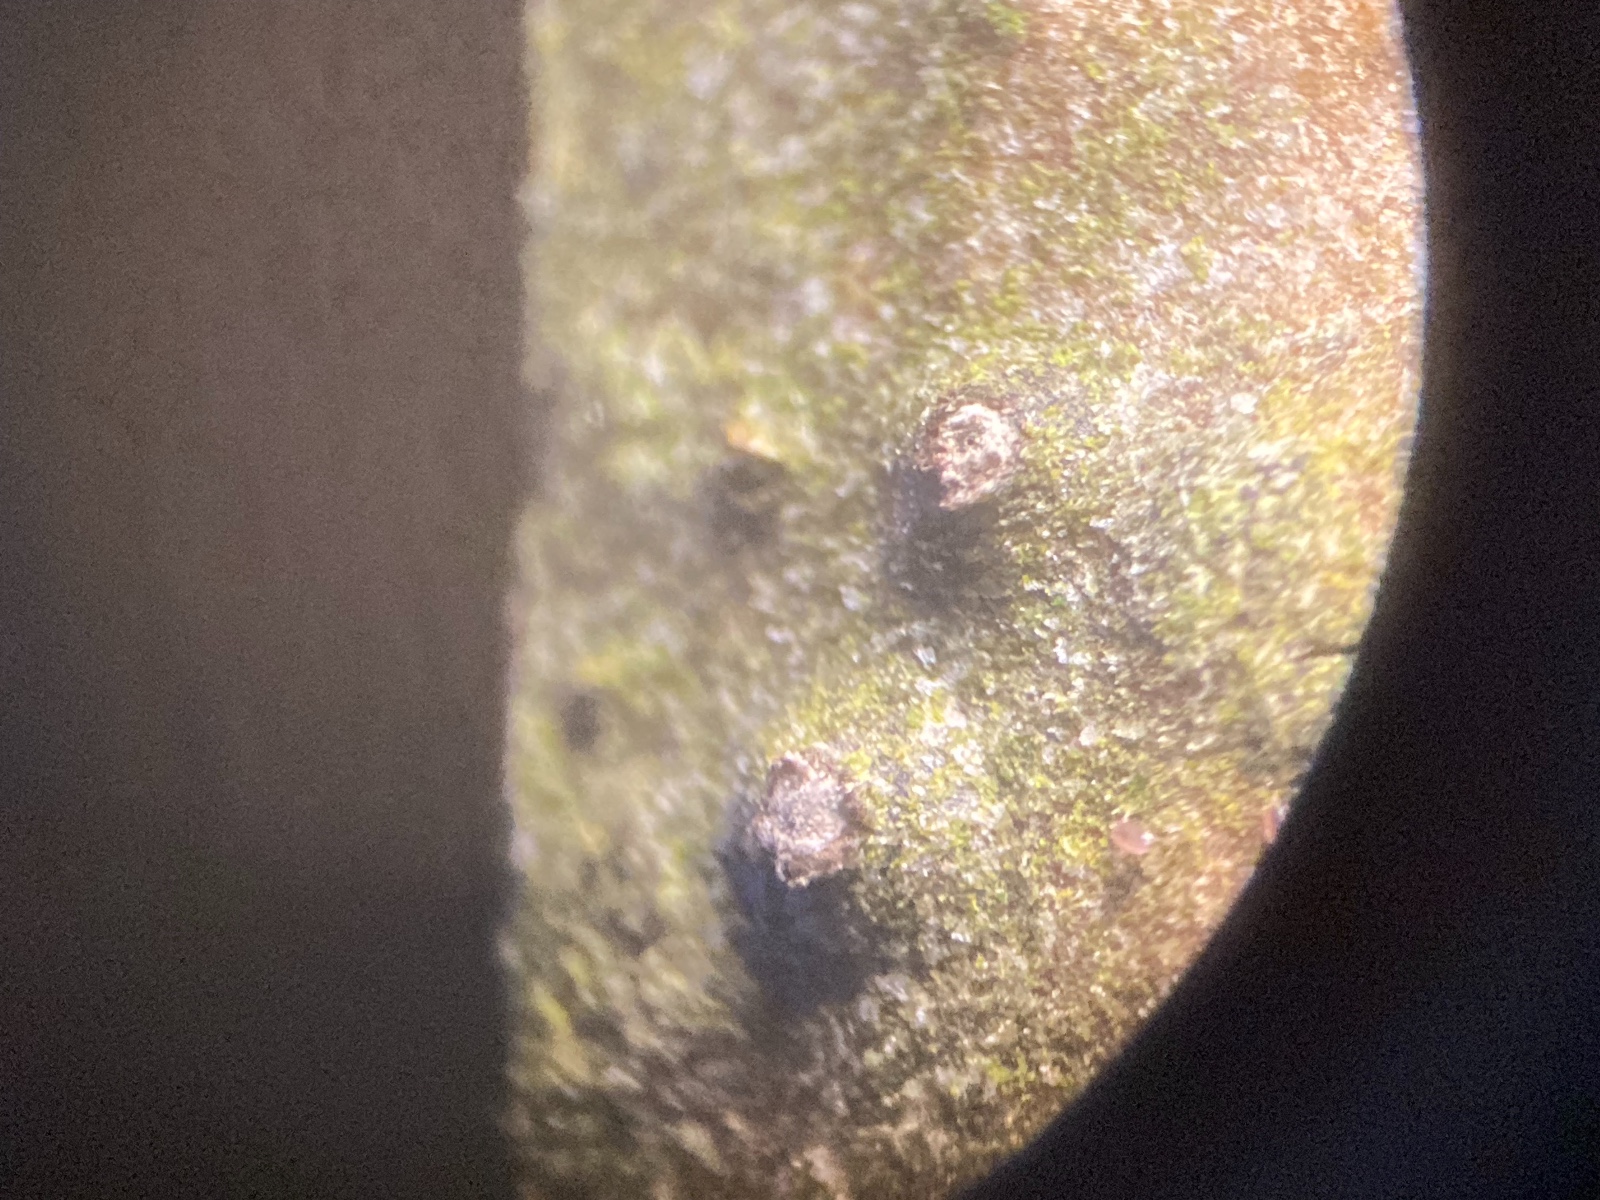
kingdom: Fungi
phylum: Ascomycota
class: Sordariomycetes
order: Diaporthales
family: Valsaceae
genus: Cytospora
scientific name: Cytospora nivea
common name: hvidskivet kulknippe
